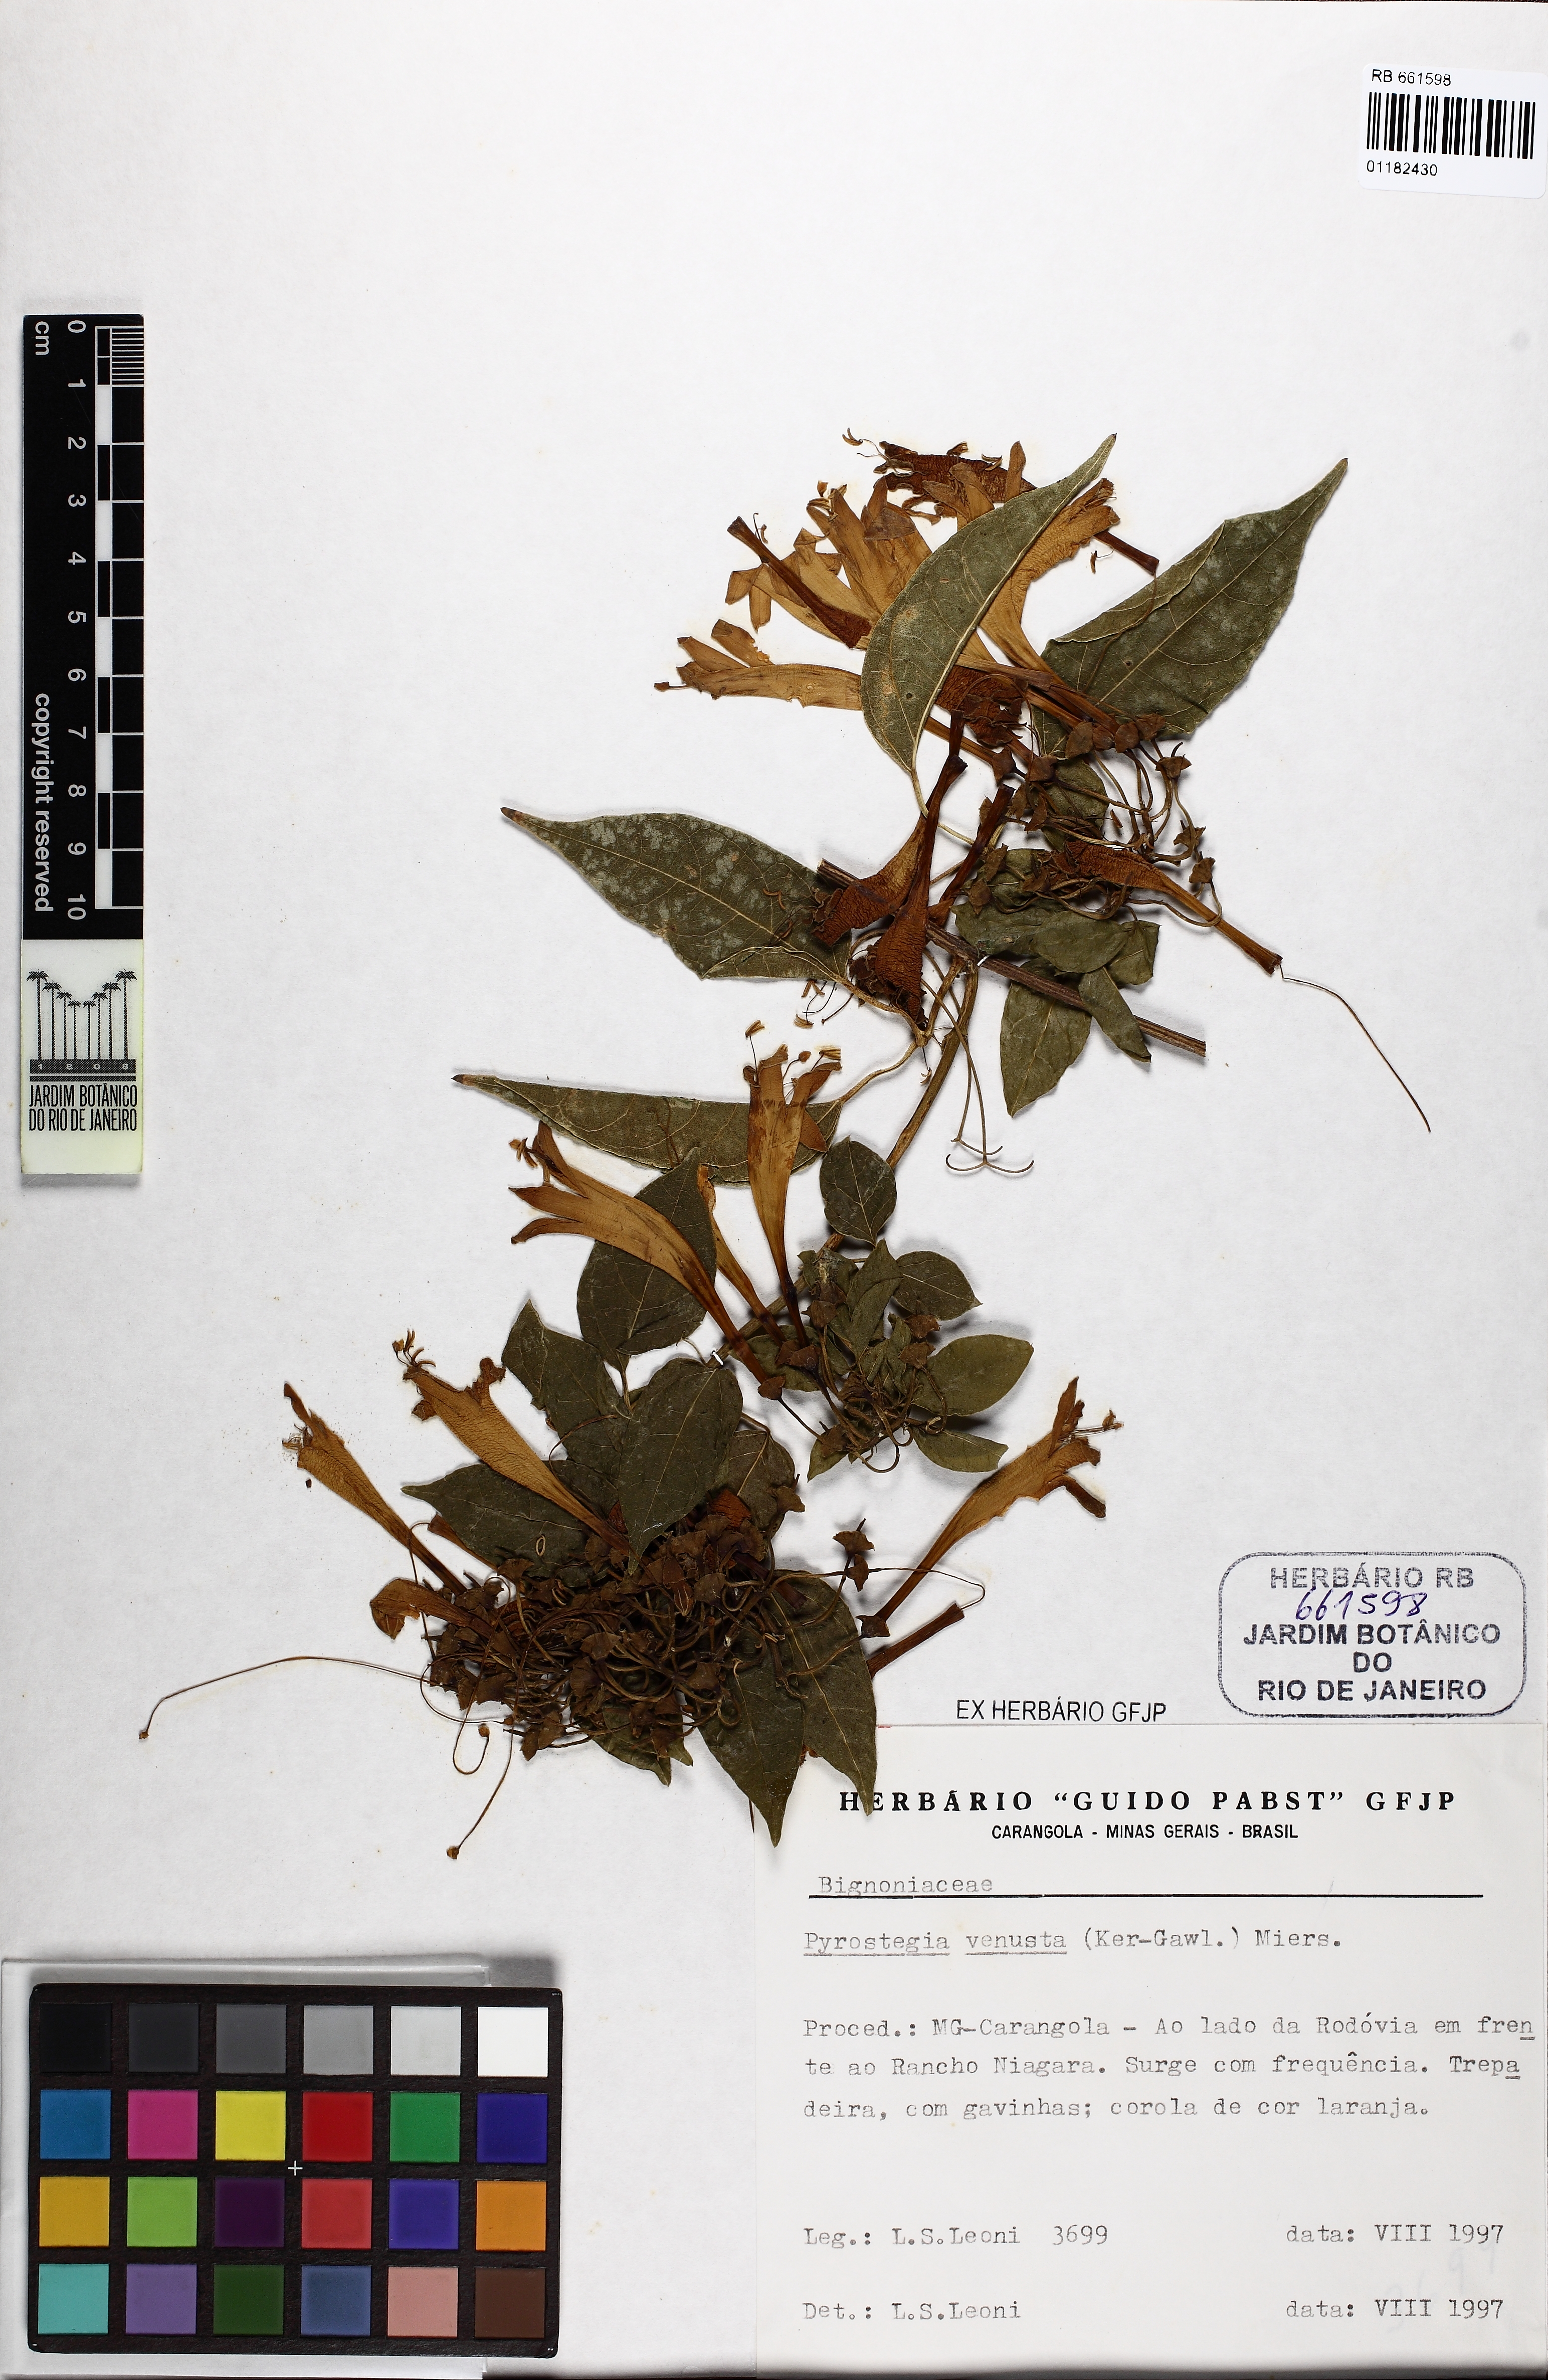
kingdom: Plantae
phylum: Tracheophyta
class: Magnoliopsida
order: Lamiales
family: Bignoniaceae
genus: Pyrostegia
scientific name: Pyrostegia venusta
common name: Flamevine
